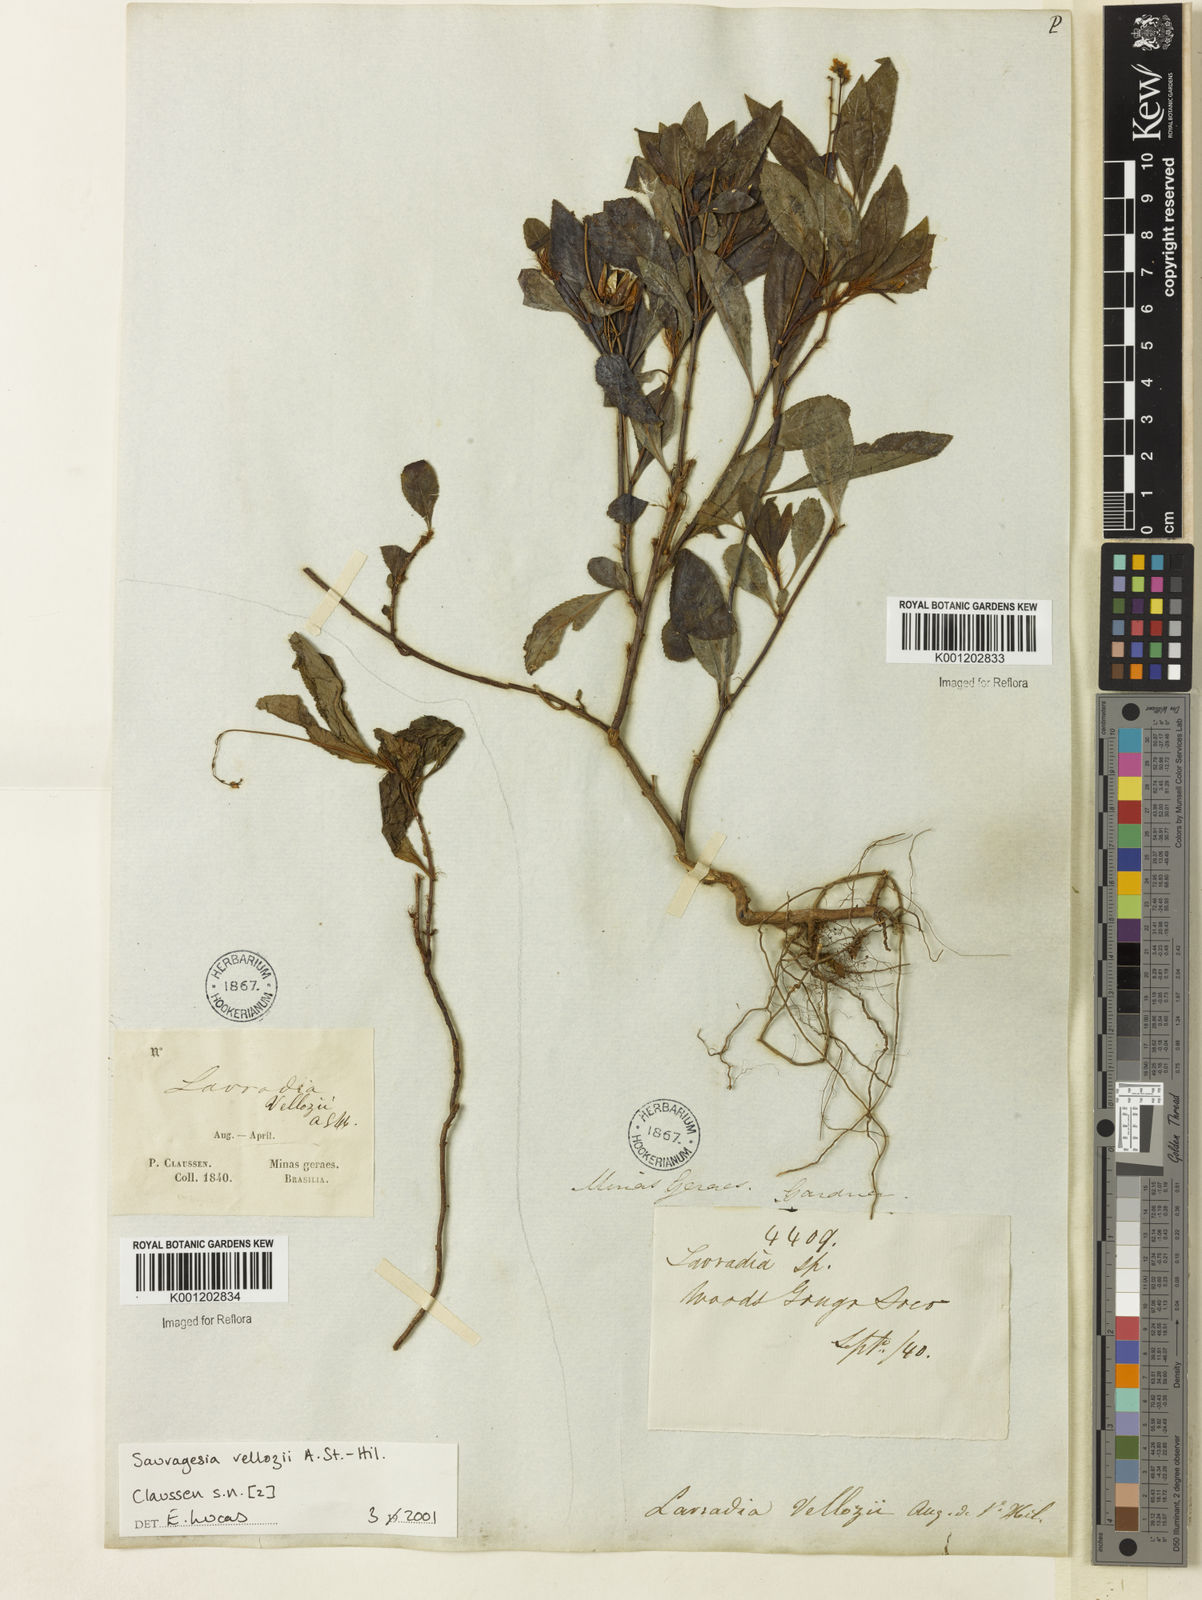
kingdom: Plantae
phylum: Tracheophyta
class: Magnoliopsida
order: Malpighiales
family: Ochnaceae
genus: Sauvagesia
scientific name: Sauvagesia
